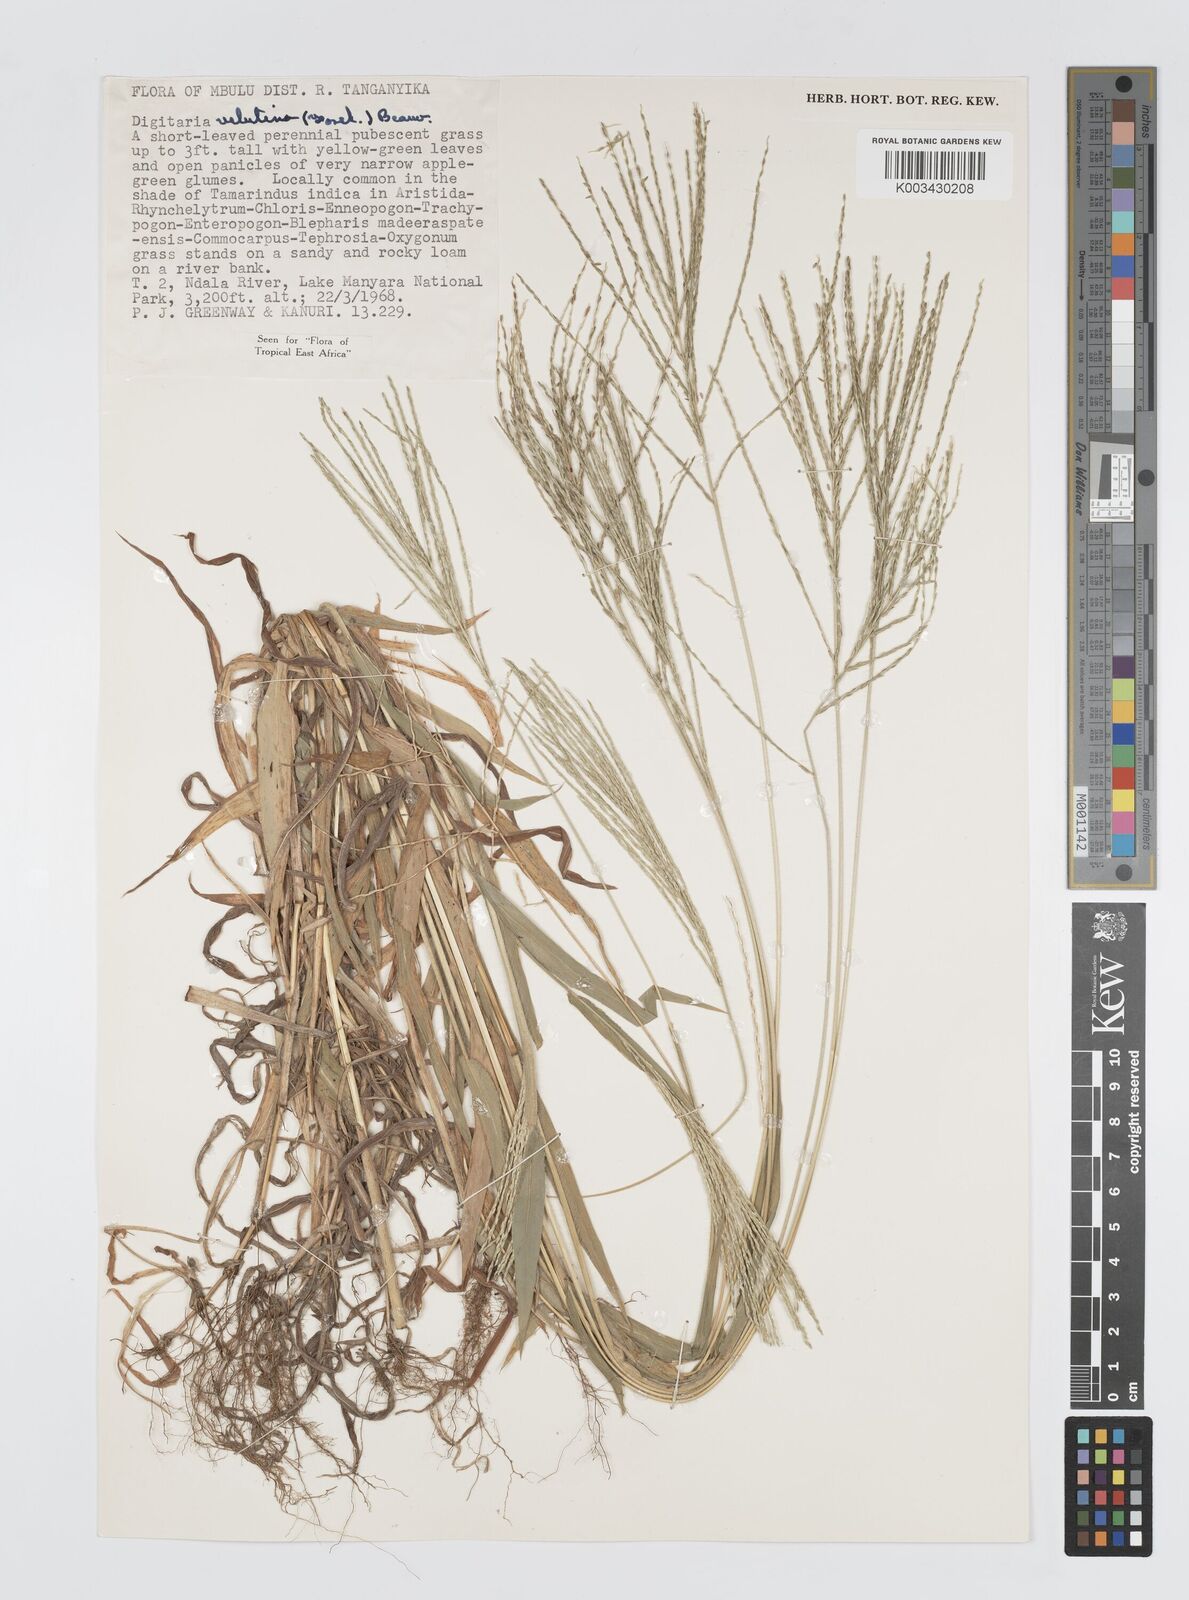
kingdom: Plantae
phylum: Tracheophyta
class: Liliopsida
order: Poales
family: Poaceae
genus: Digitaria
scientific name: Digitaria velutina
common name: Long-plume finger grass
